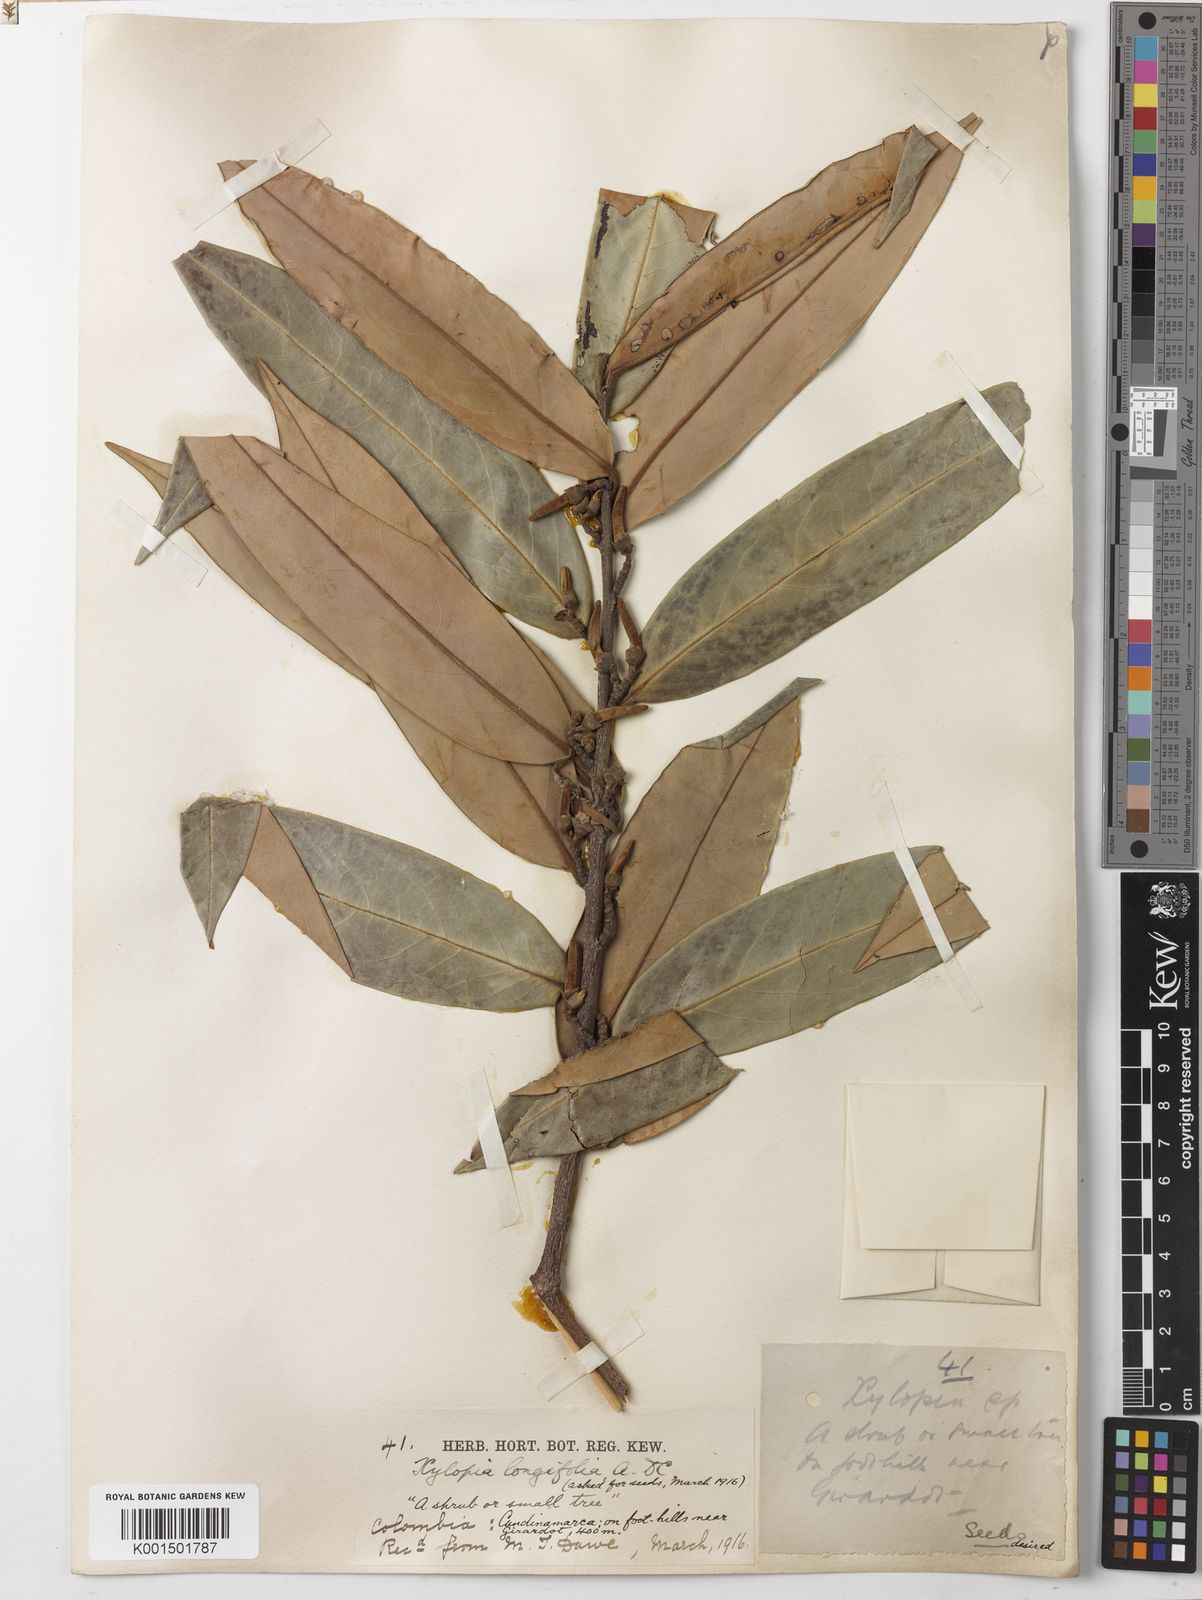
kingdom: Plantae
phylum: Tracheophyta
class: Magnoliopsida
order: Magnoliales
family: Annonaceae
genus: Xylopia
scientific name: Xylopia aromatica
